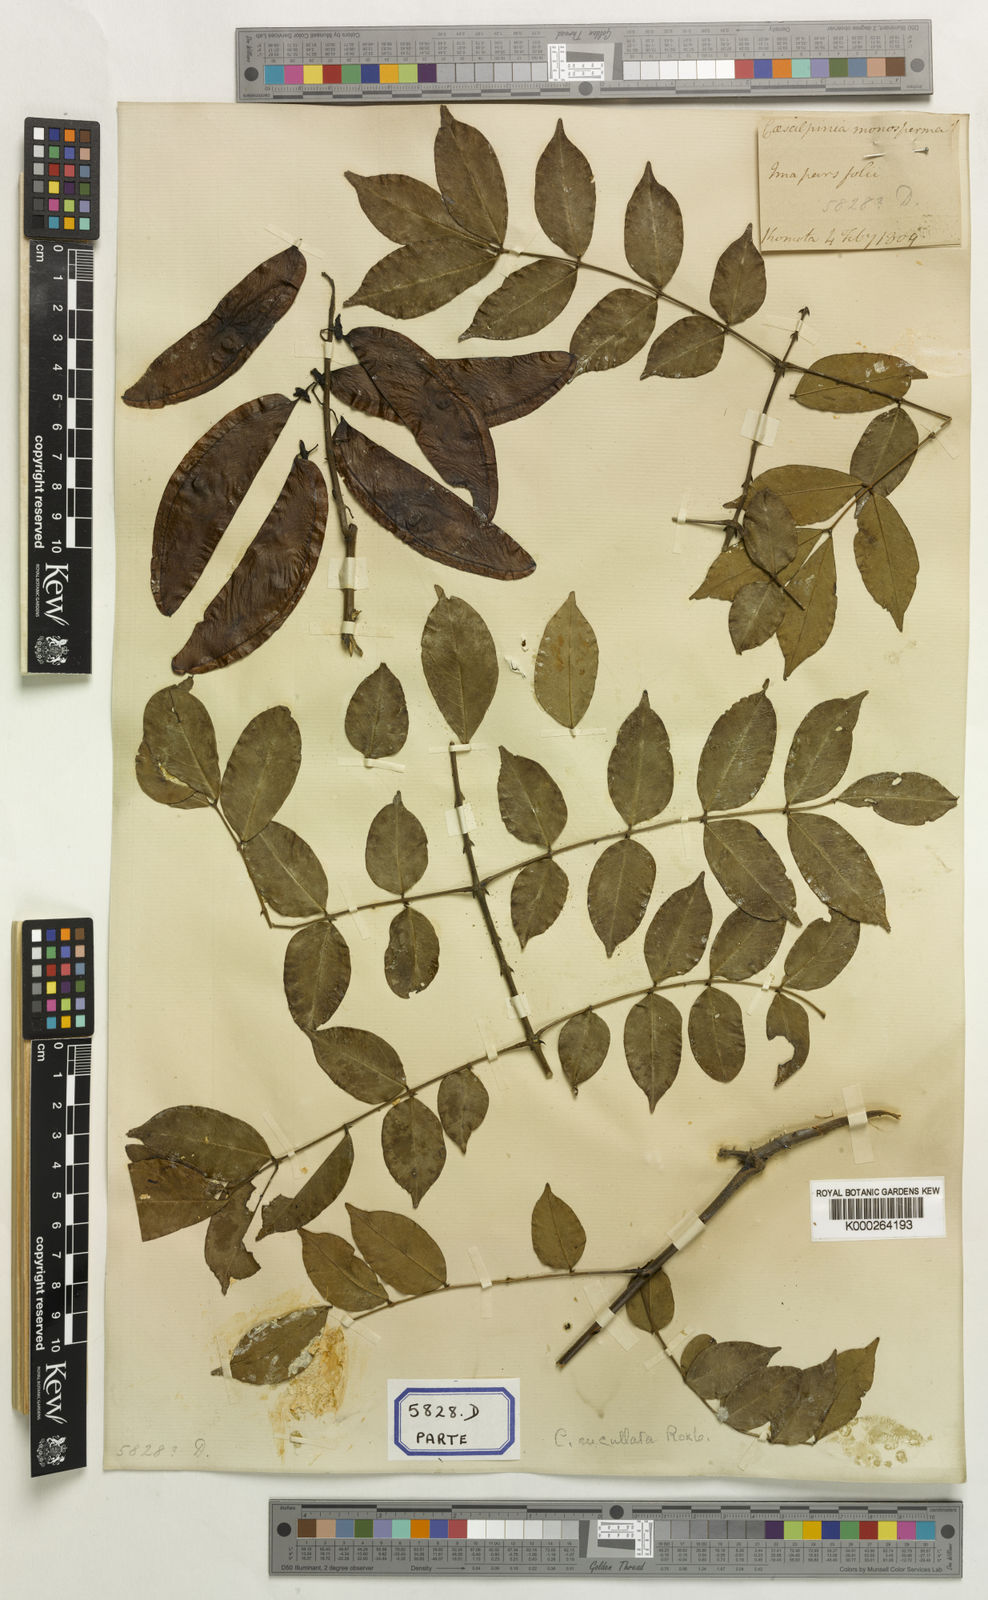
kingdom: Plantae
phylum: Tracheophyta
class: Magnoliopsida
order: Fabales
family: Fabaceae
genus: Mezoneuron
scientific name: Mezoneuron cucullatum
